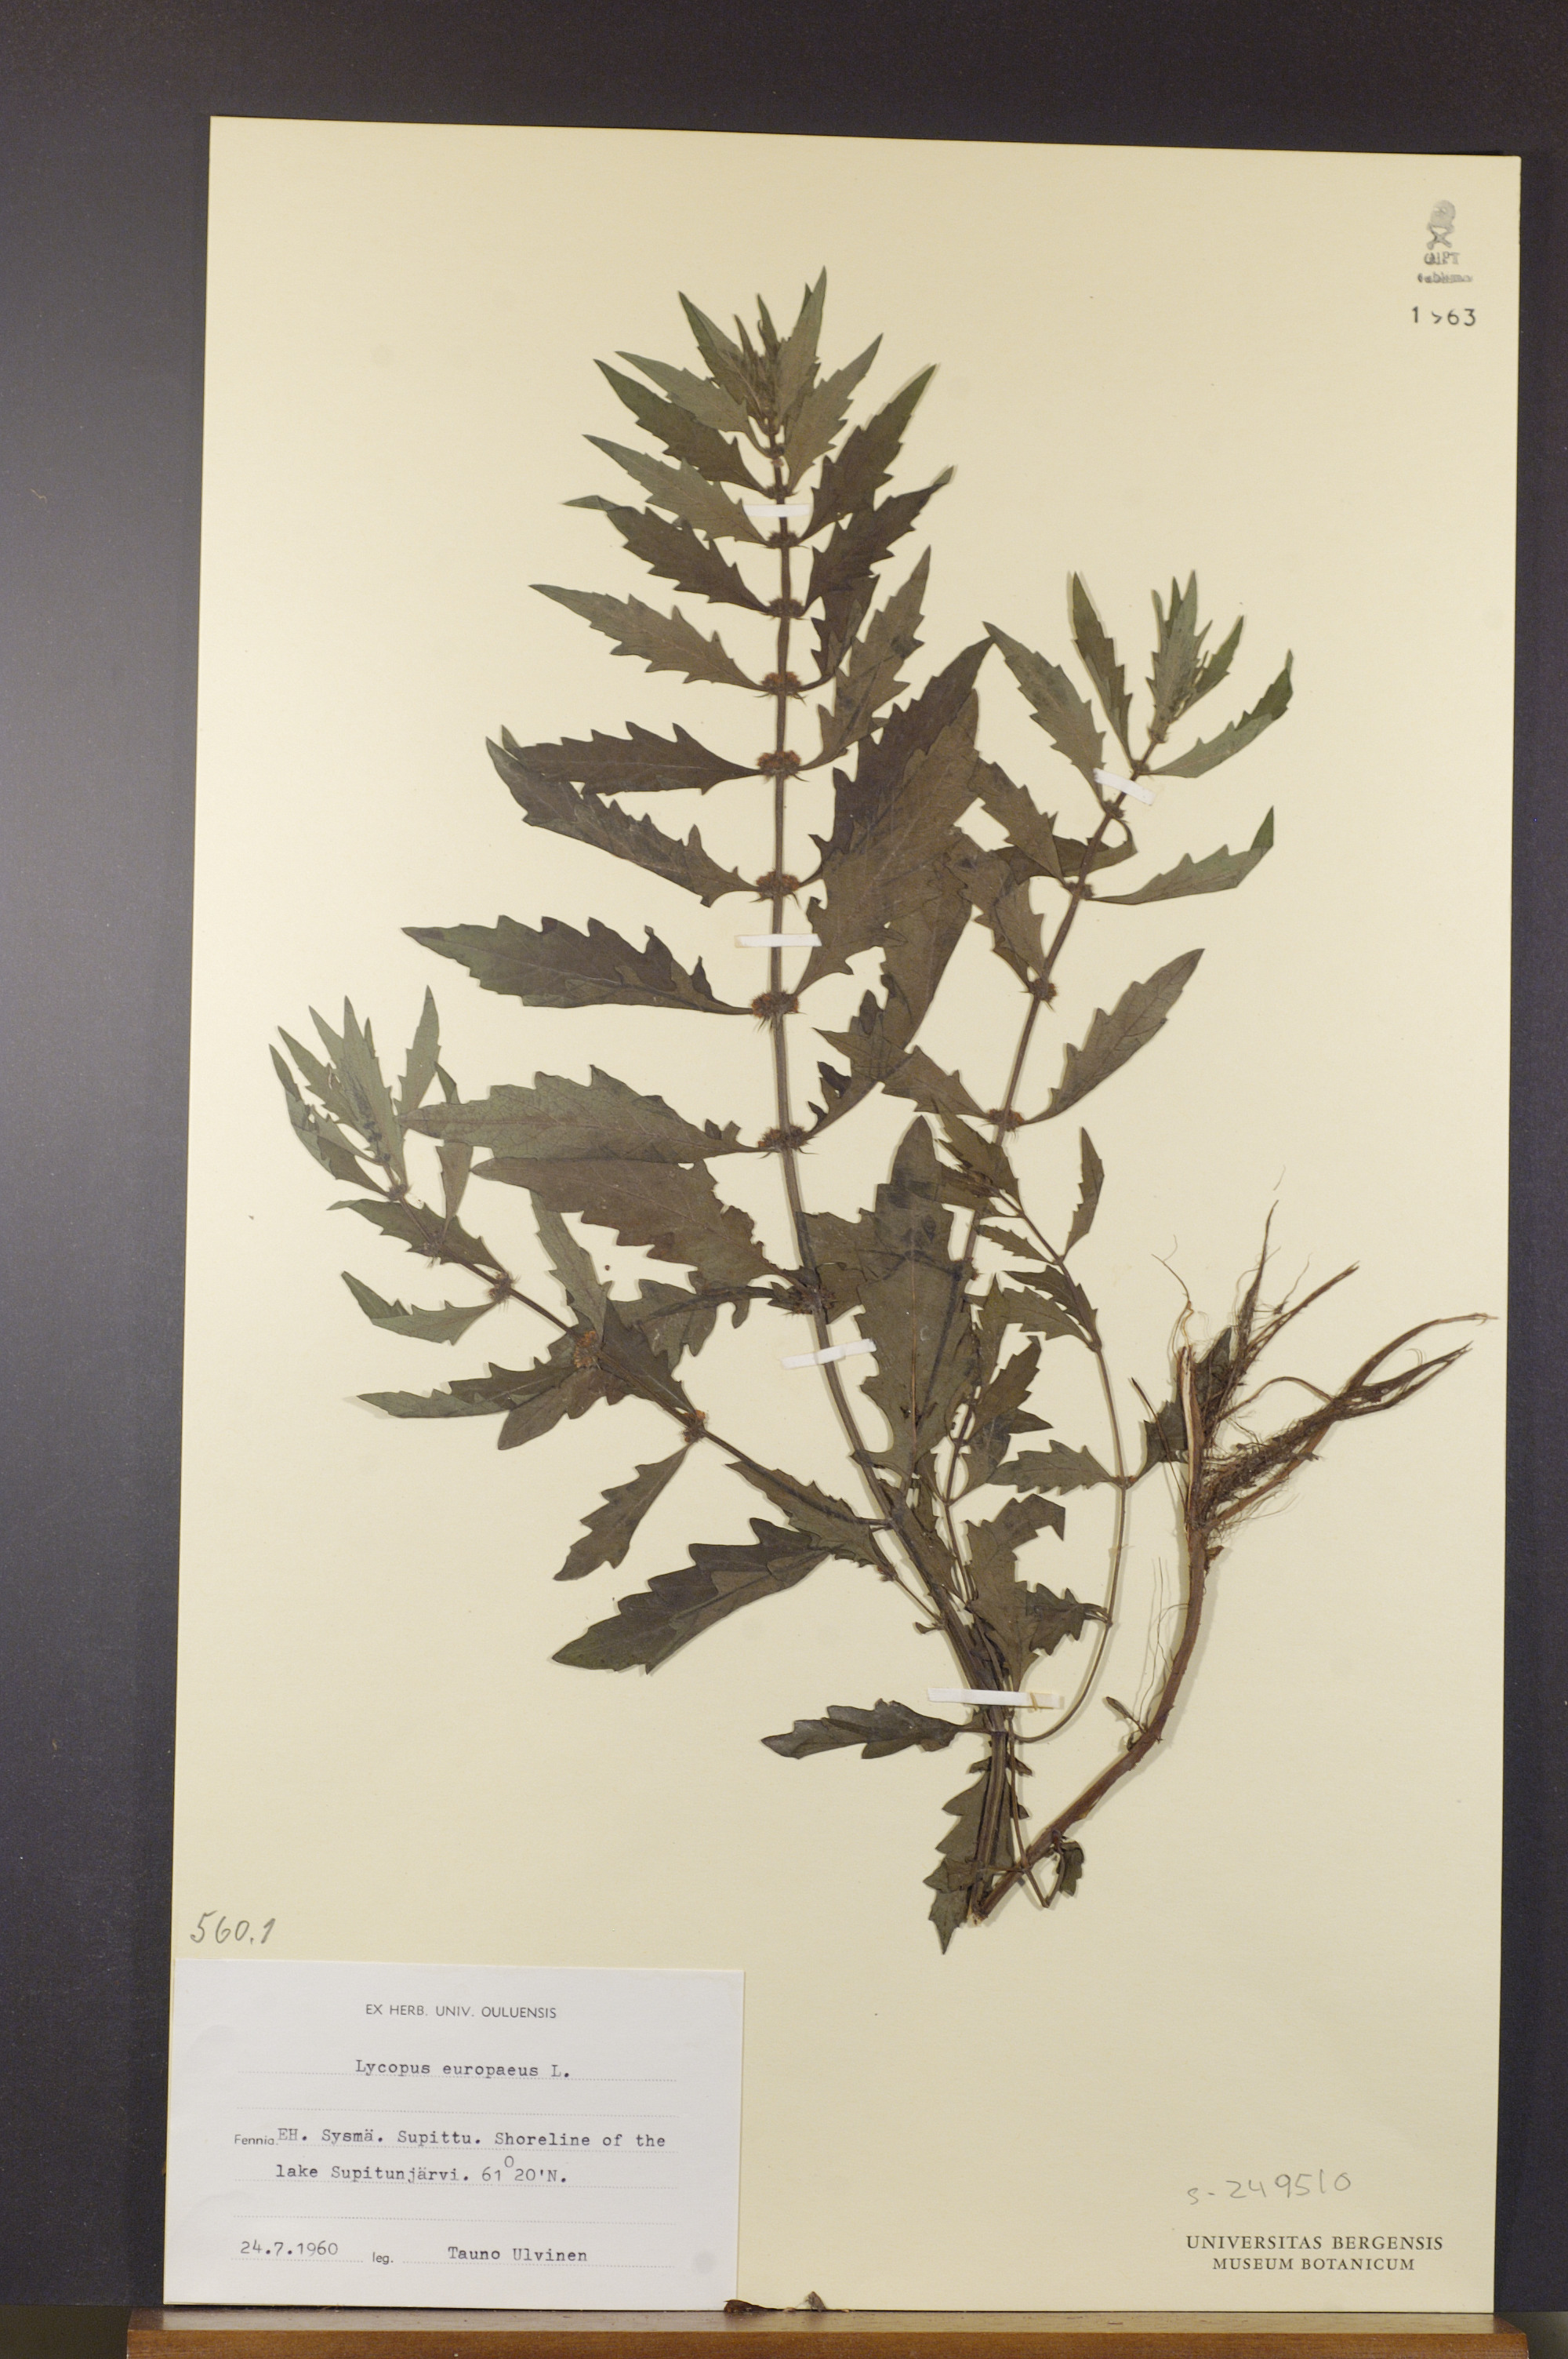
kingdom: Plantae
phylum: Tracheophyta
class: Magnoliopsida
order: Lamiales
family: Lamiaceae
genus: Lycopus
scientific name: Lycopus europaeus
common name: European bugleweed
